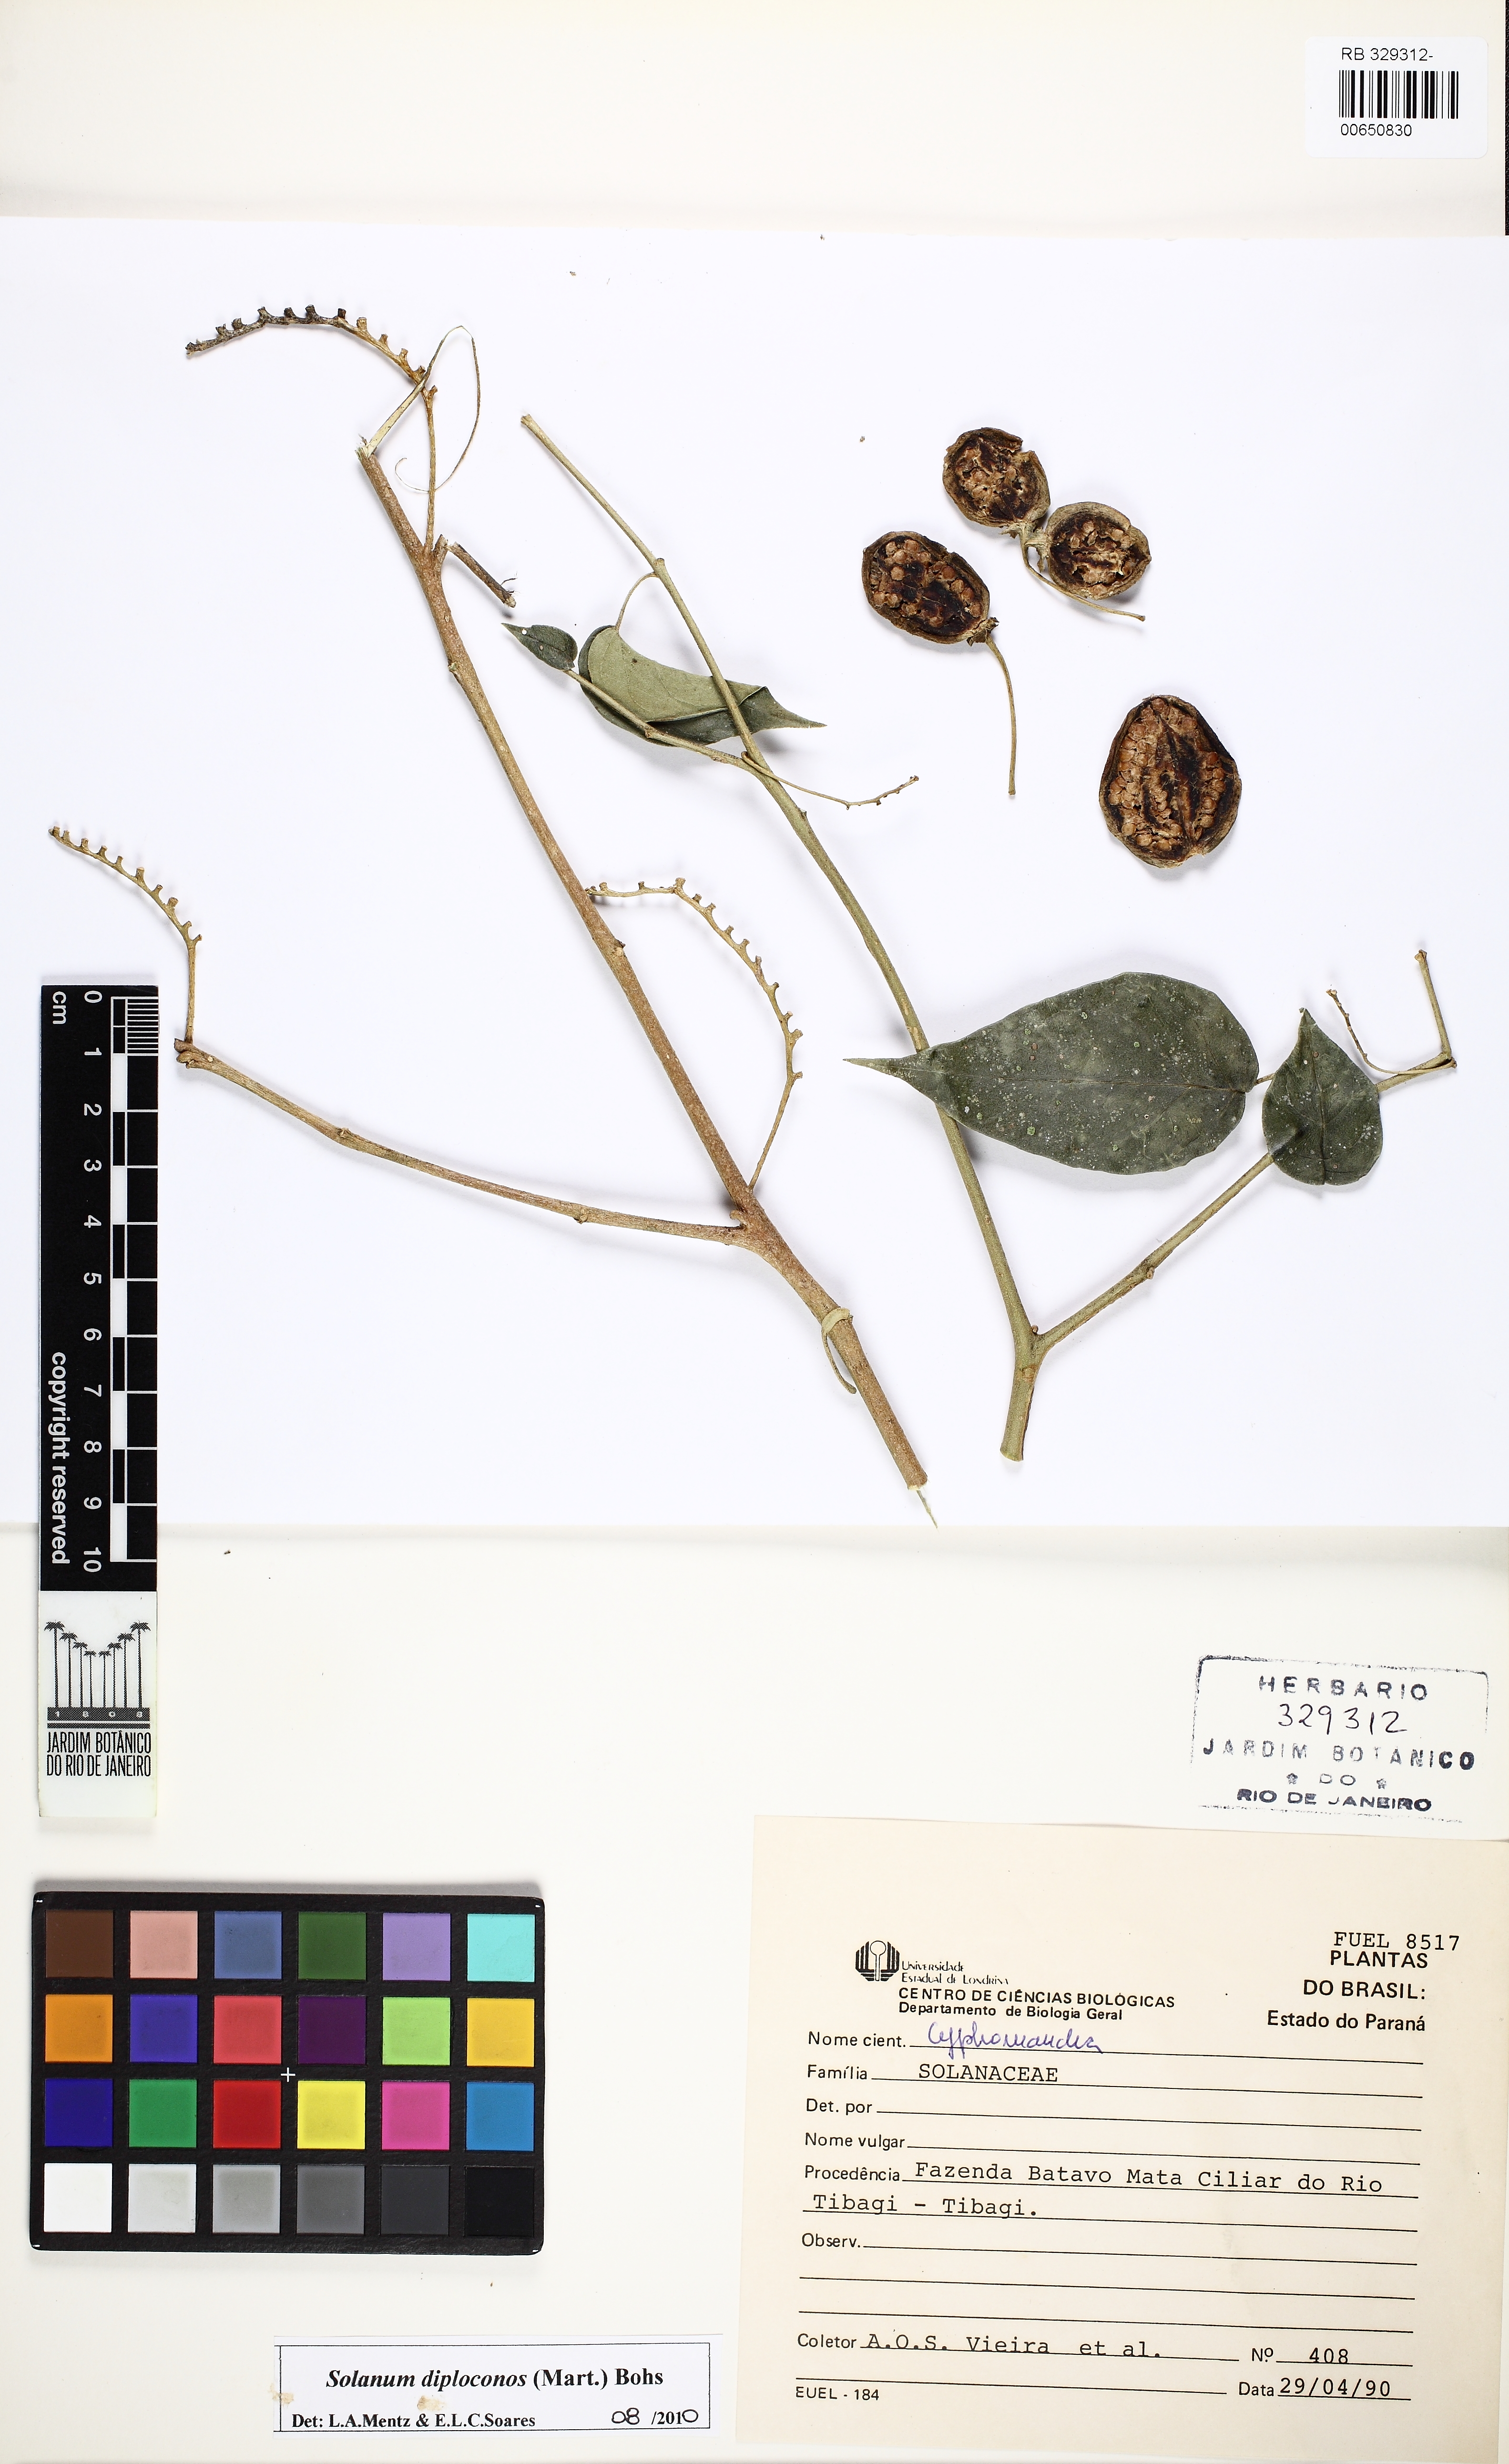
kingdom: Plantae
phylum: Tracheophyta
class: Magnoliopsida
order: Solanales
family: Solanaceae
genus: Solanum
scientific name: Solanum diploconos
